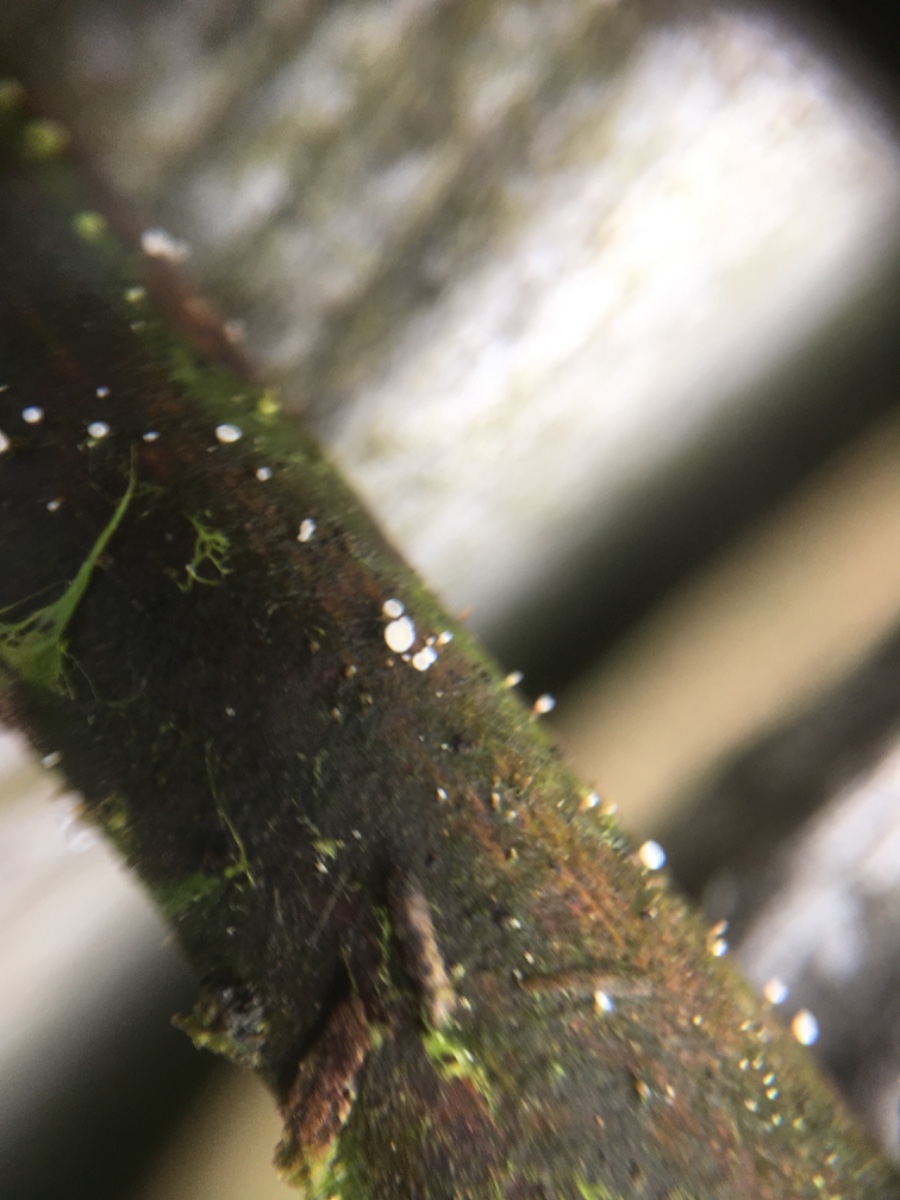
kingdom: Fungi
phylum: Ascomycota
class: Leotiomycetes
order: Helotiales
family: Lachnaceae
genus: Lachnum
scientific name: Lachnum
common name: frynseskive
